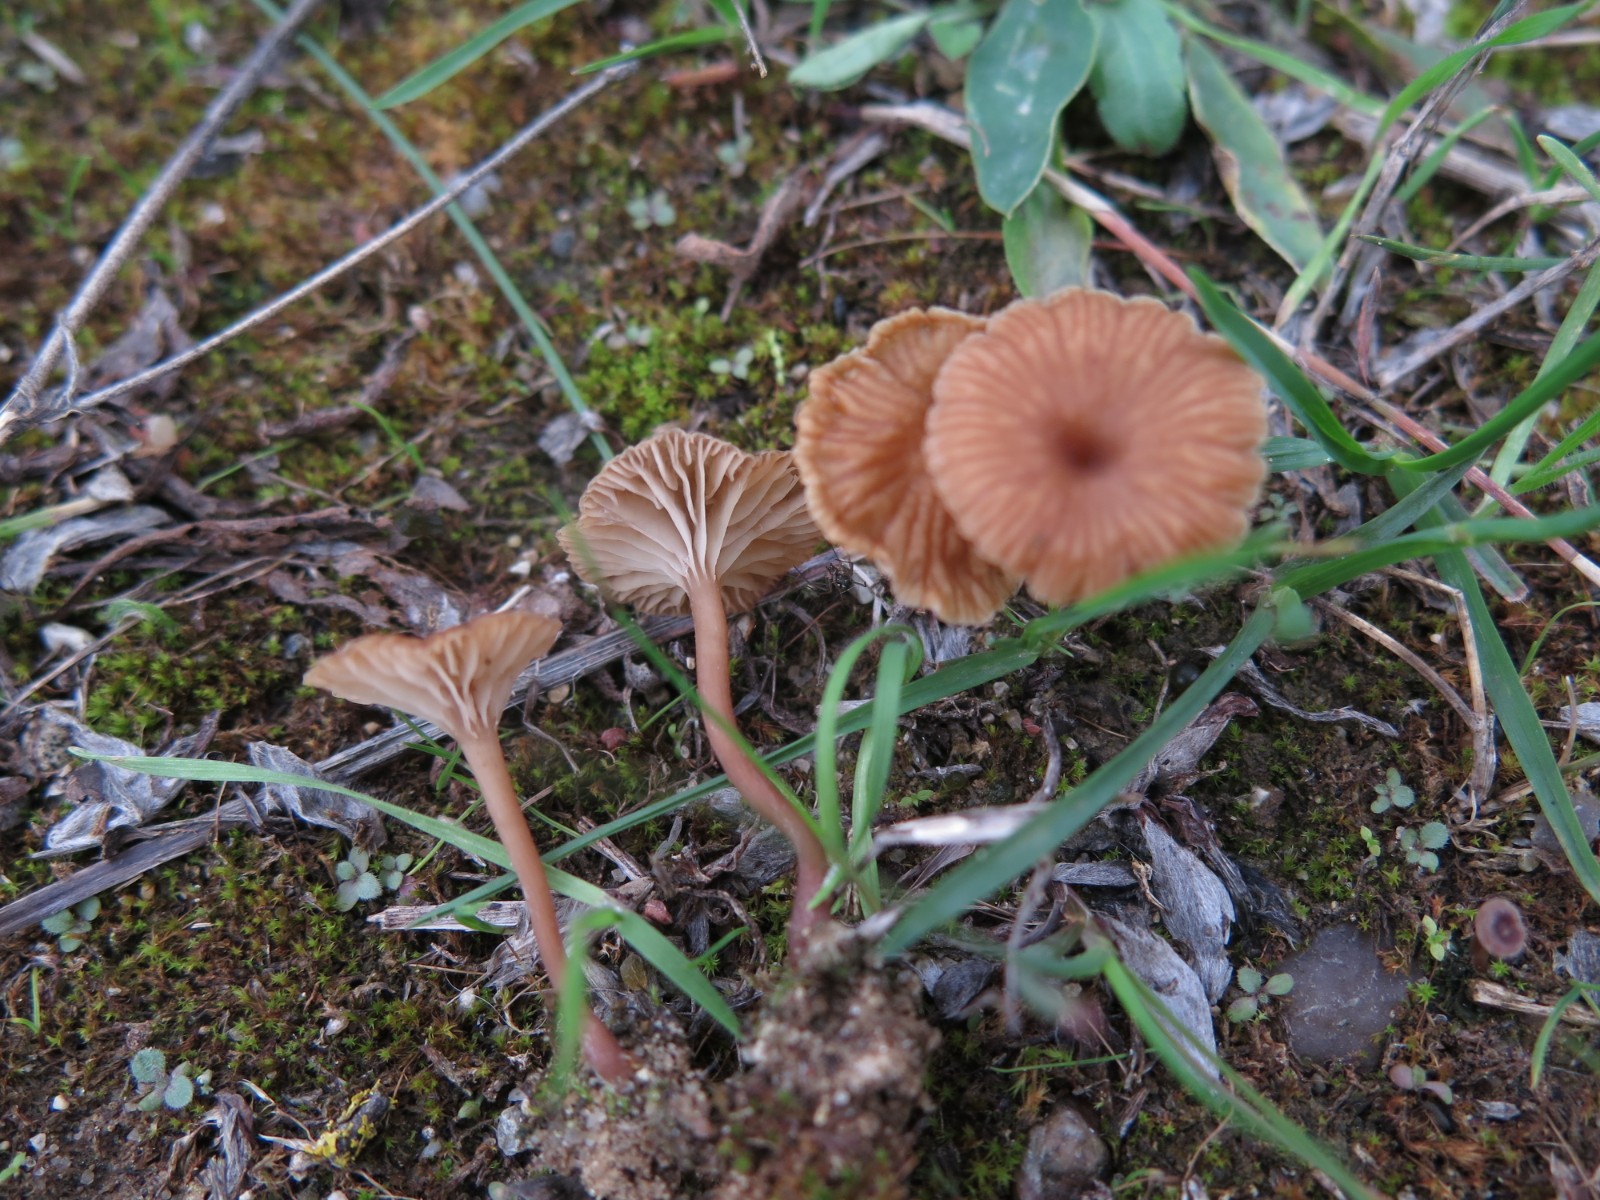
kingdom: Fungi
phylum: Basidiomycota
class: Agaricomycetes
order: Agaricales
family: Tricholomataceae
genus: Omphalina
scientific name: Omphalina pyxidata
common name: rødbrun navlehat
